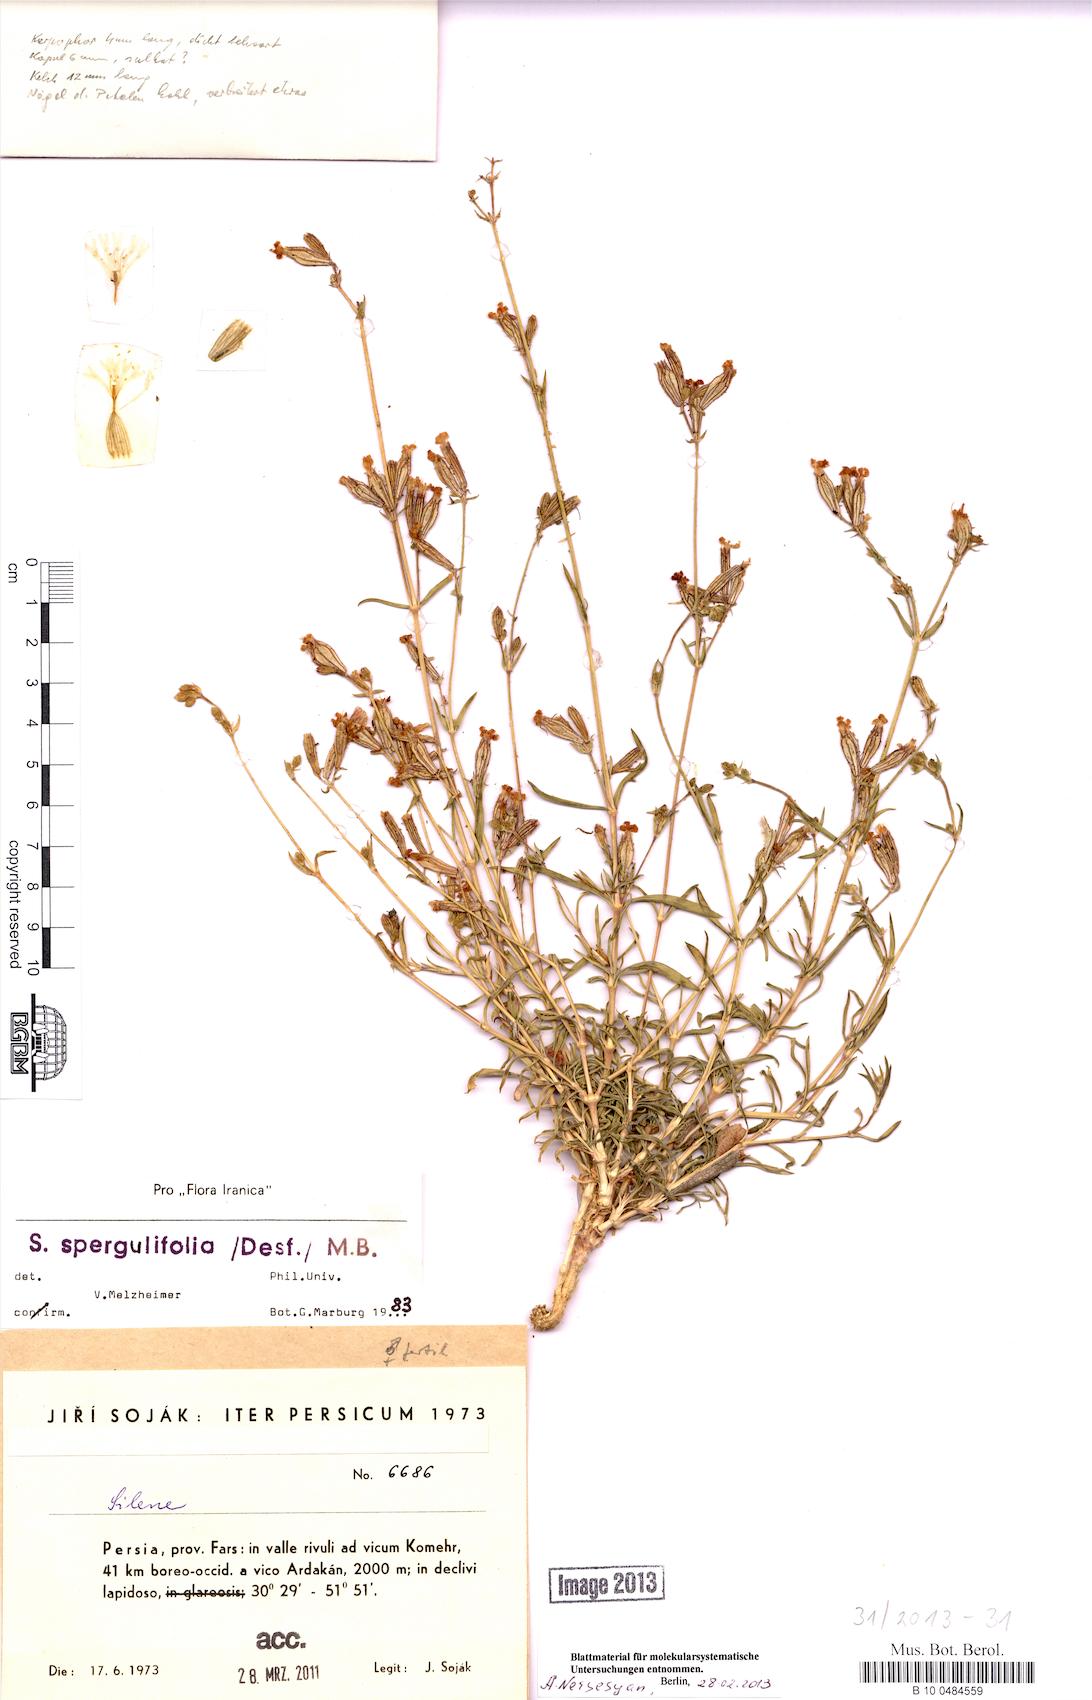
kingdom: Plantae
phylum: Tracheophyta
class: Magnoliopsida
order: Caryophyllales
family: Caryophyllaceae
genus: Silene
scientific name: Silene spergulifolia
